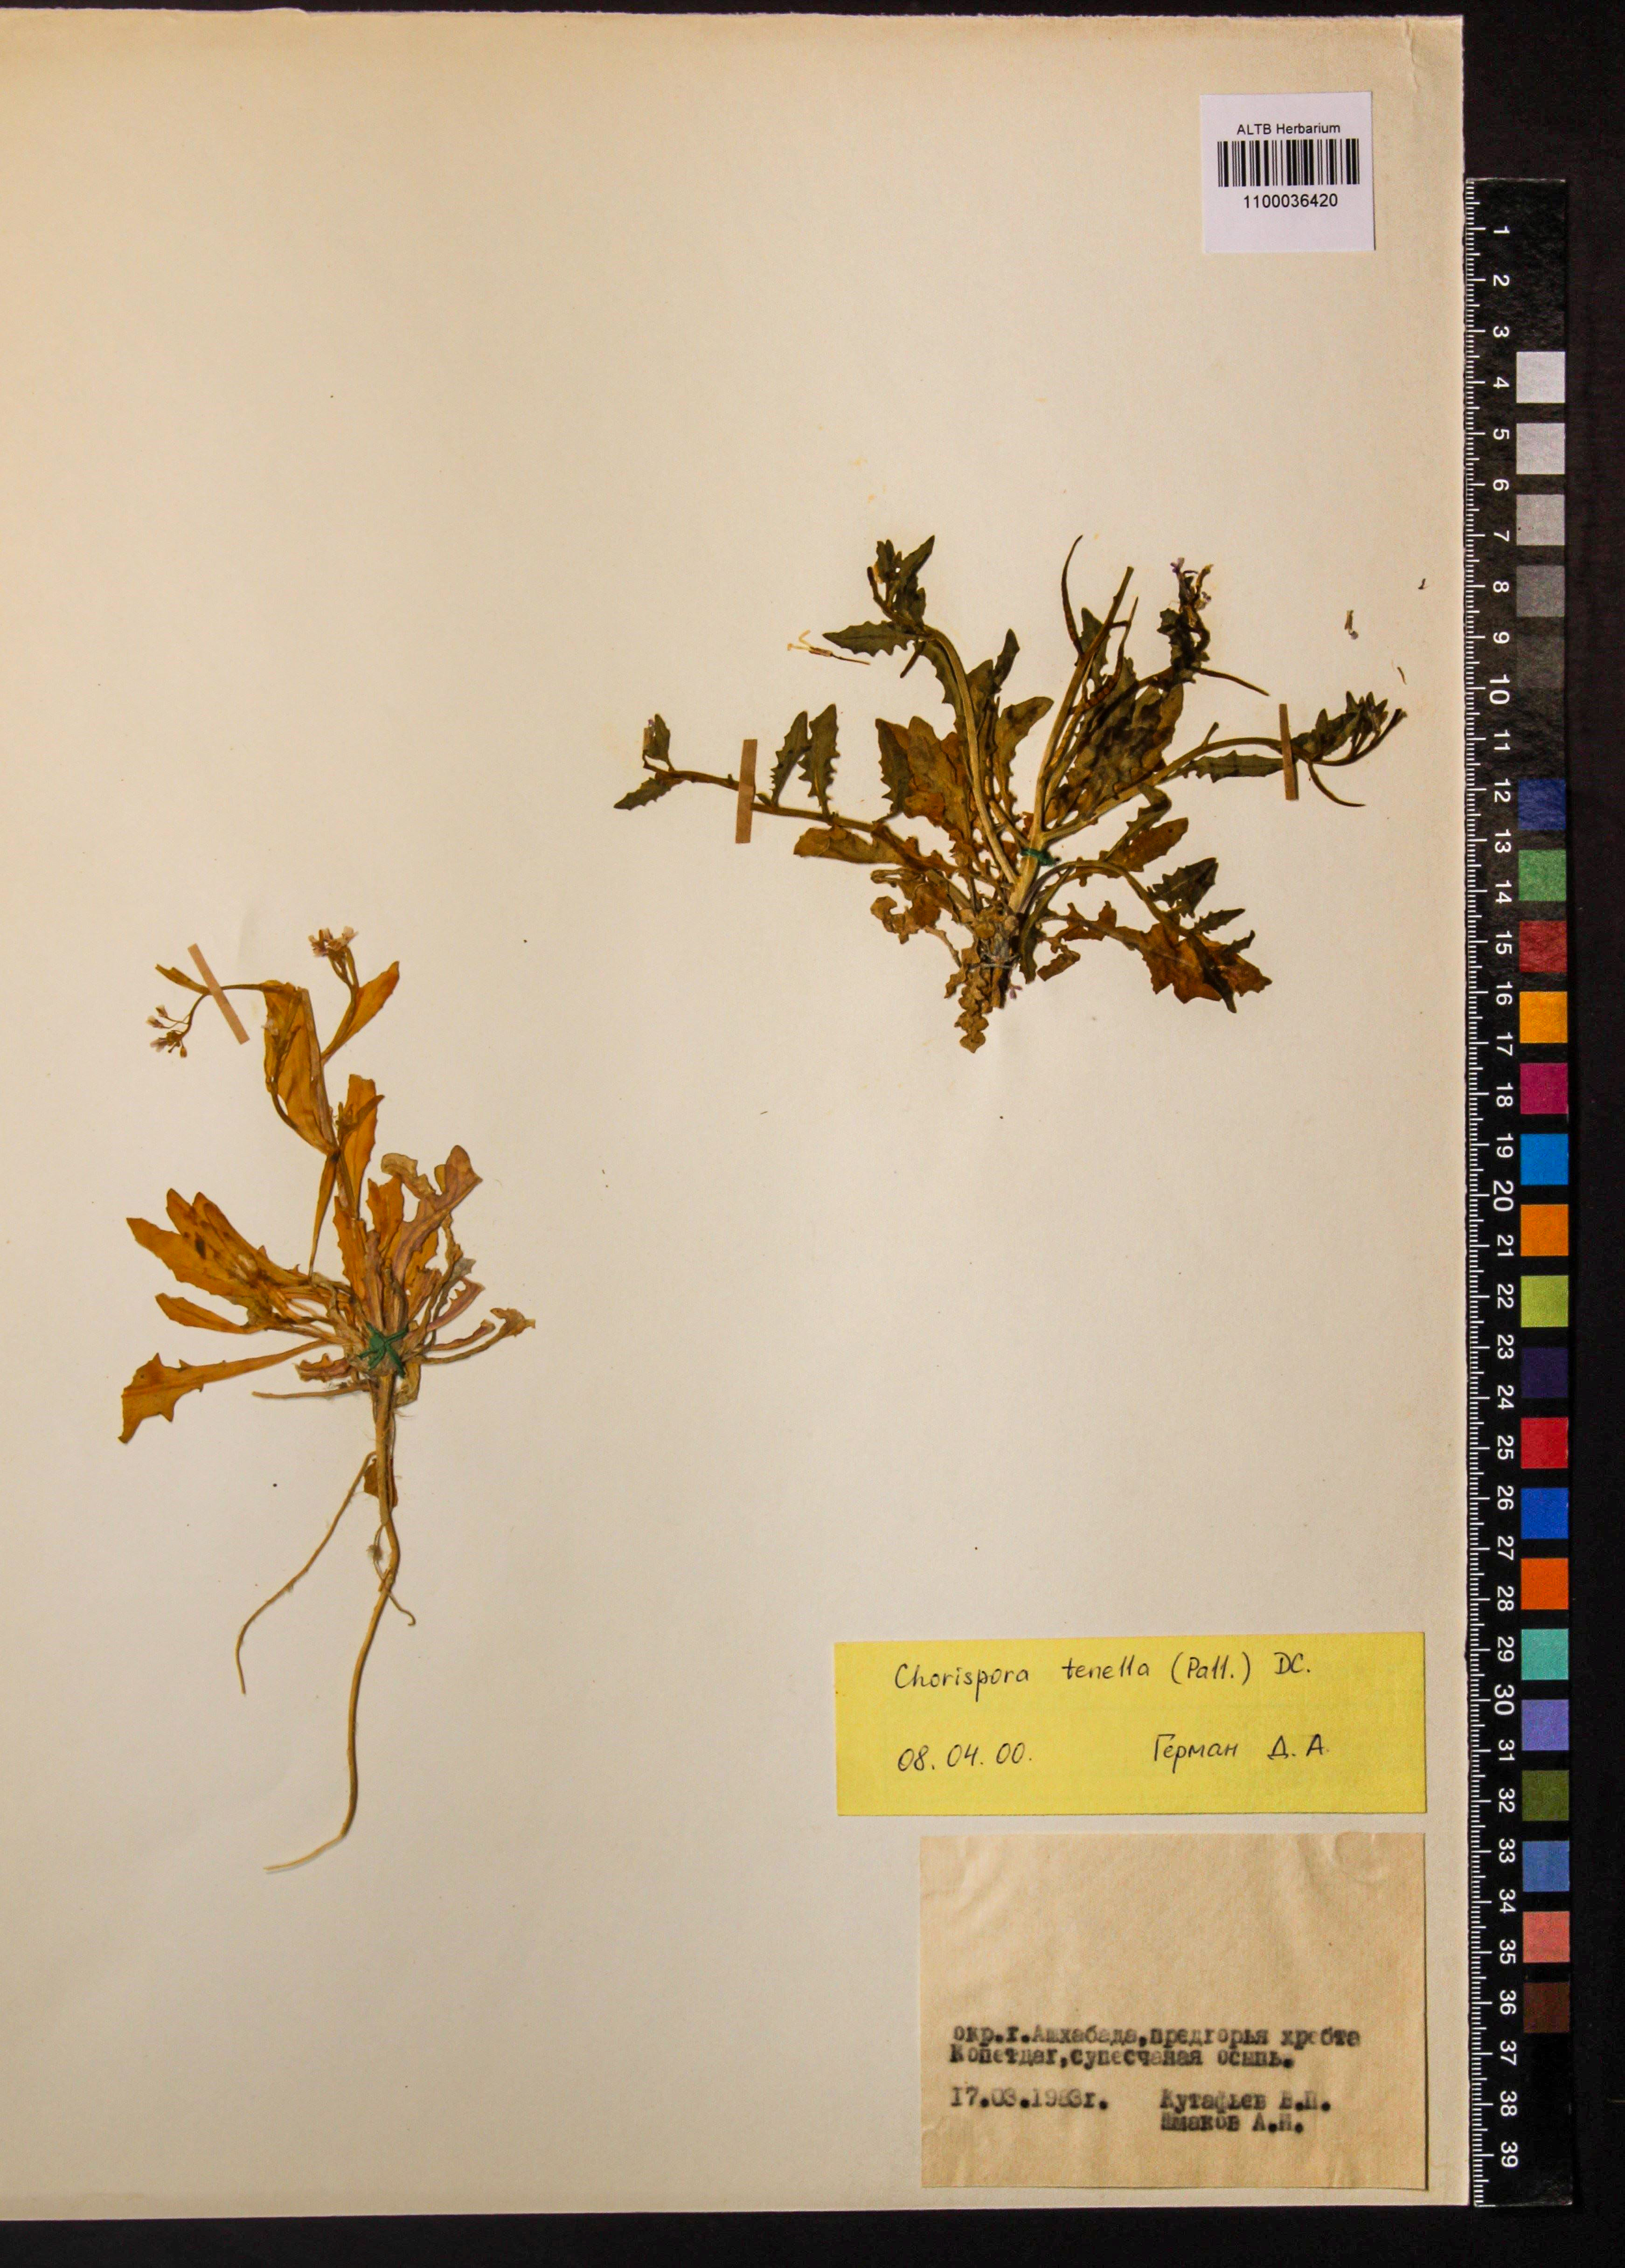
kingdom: Plantae
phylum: Tracheophyta
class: Magnoliopsida
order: Brassicales
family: Brassicaceae
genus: Chorispora
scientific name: Chorispora tenella
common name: Crossflower
